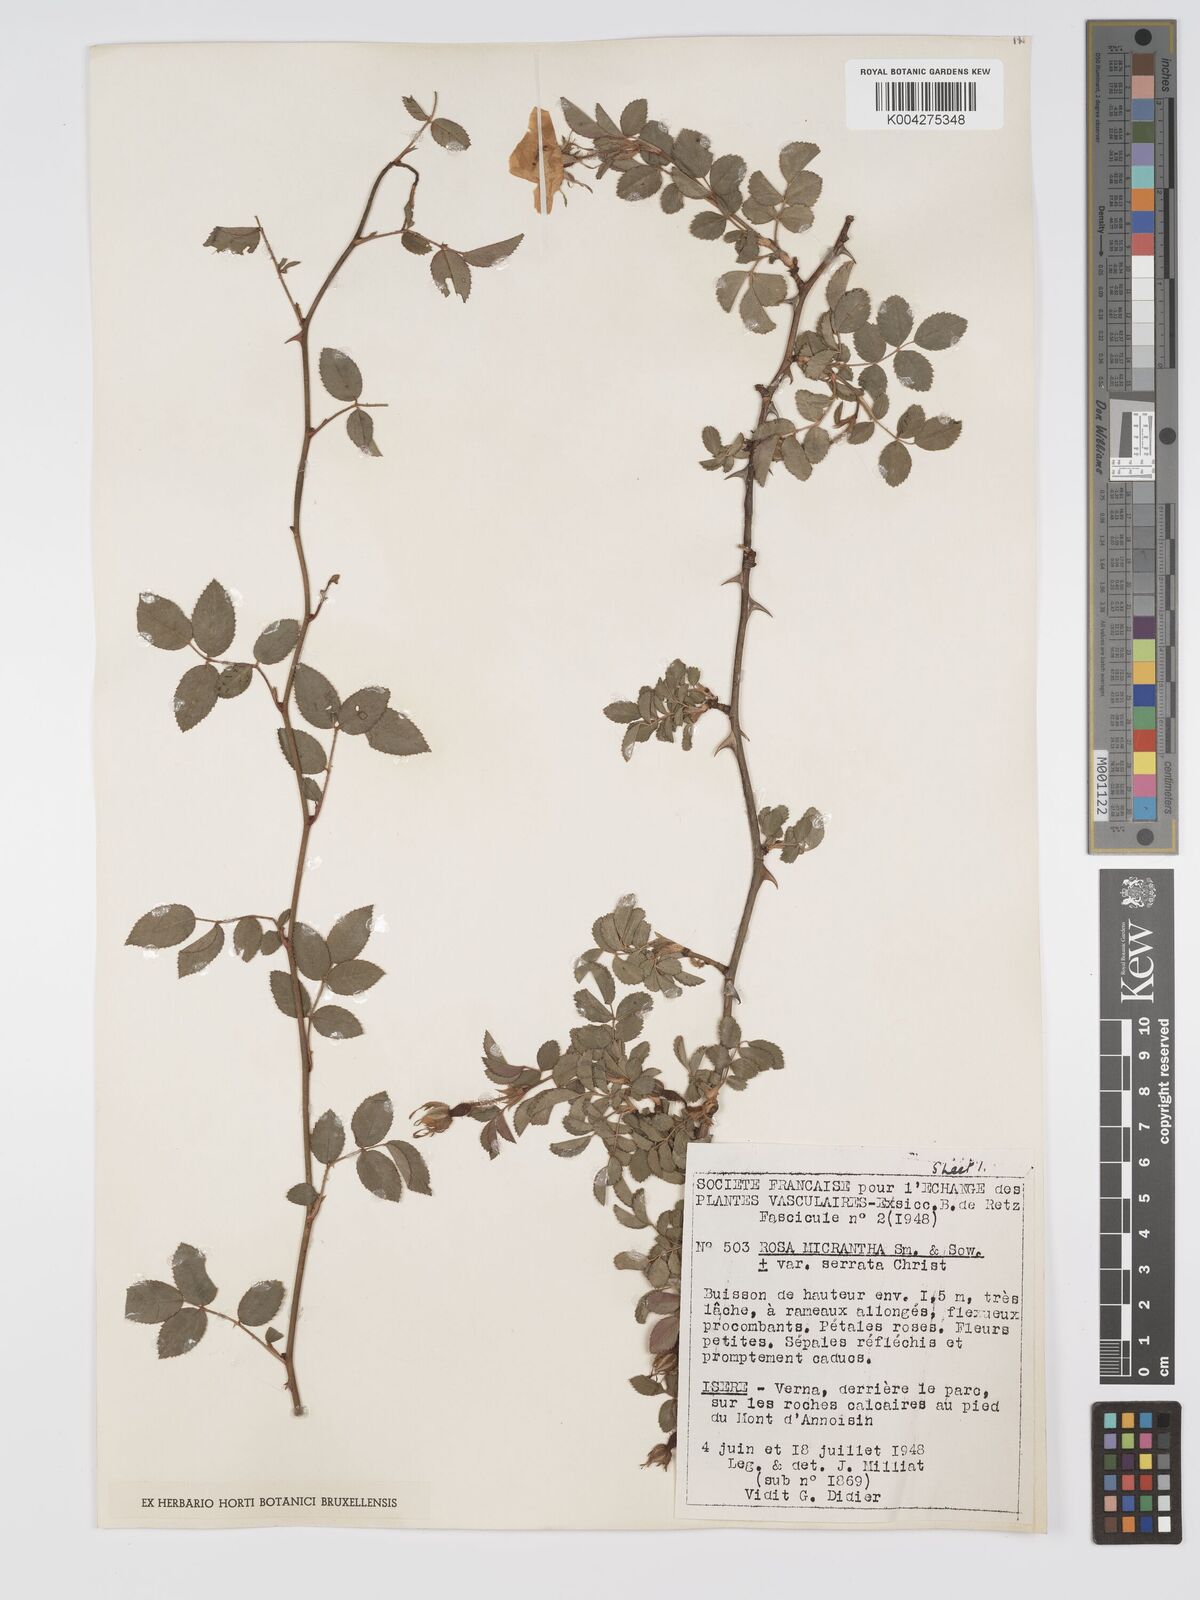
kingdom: Plantae
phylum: Tracheophyta
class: Magnoliopsida
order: Rosales
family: Rosaceae
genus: Rosa
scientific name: Rosa
